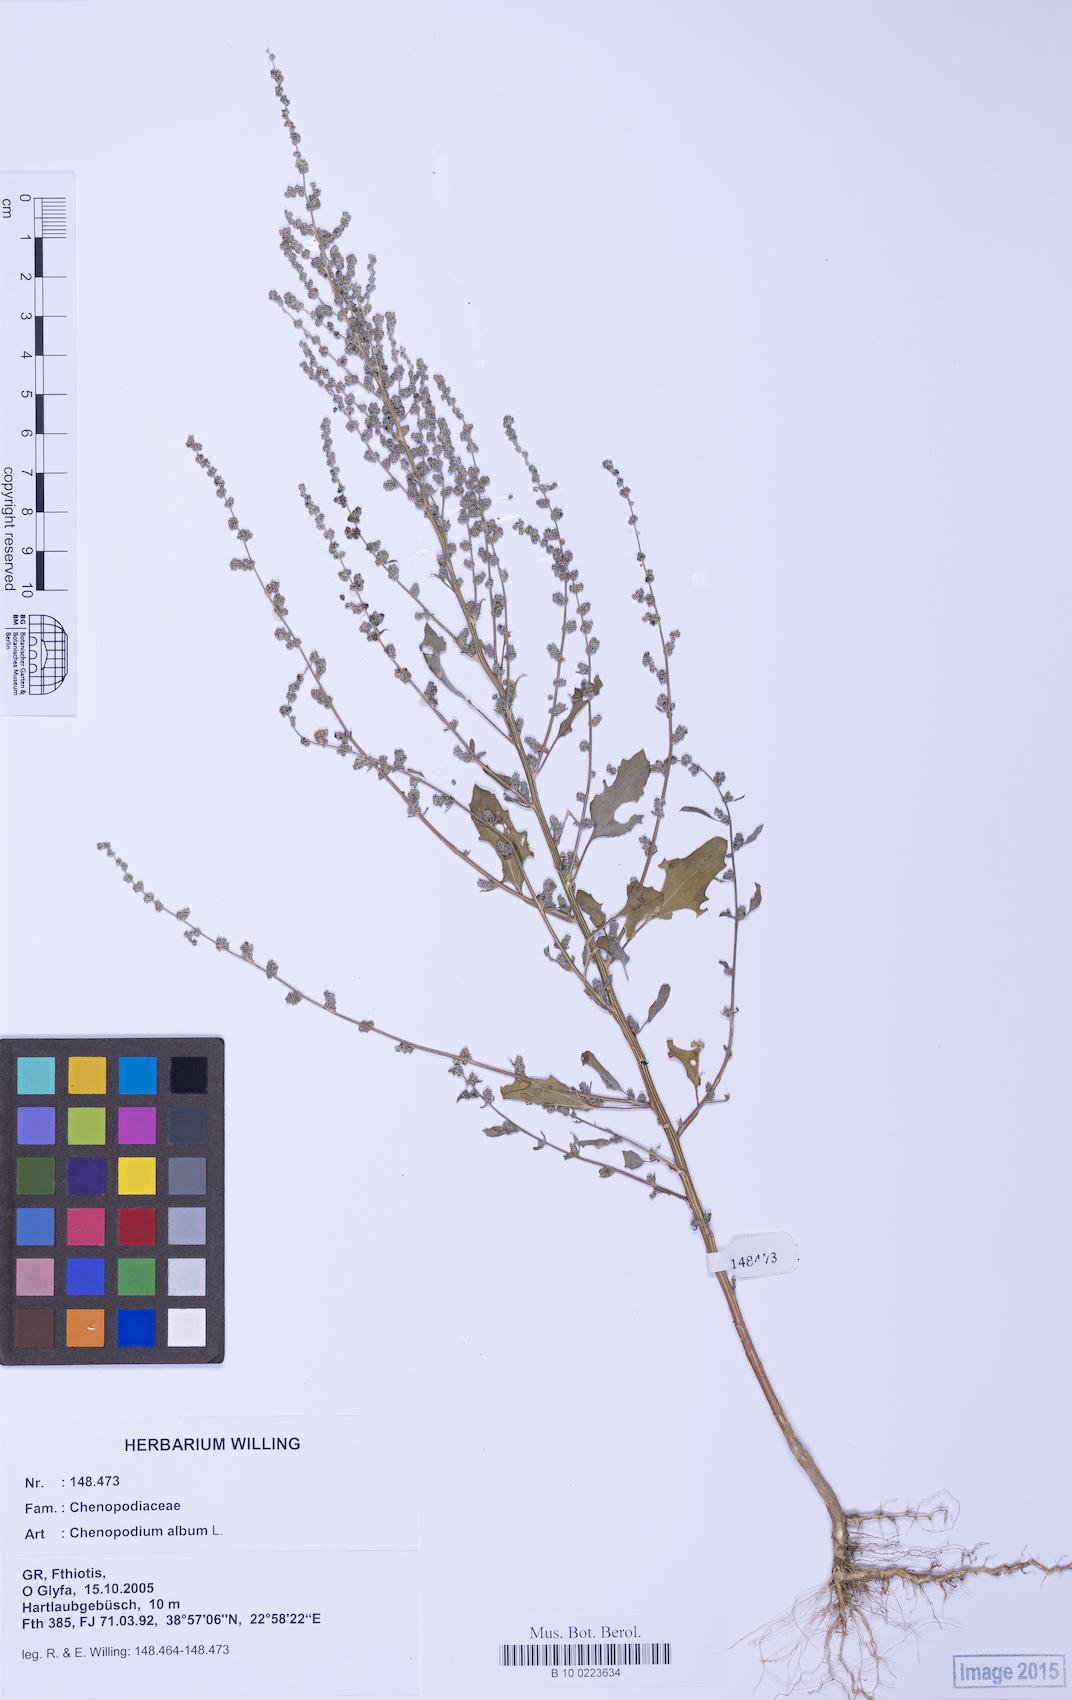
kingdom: Plantae
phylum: Tracheophyta
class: Magnoliopsida
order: Caryophyllales
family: Amaranthaceae
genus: Chenopodium
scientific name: Chenopodium album
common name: Fat-hen
